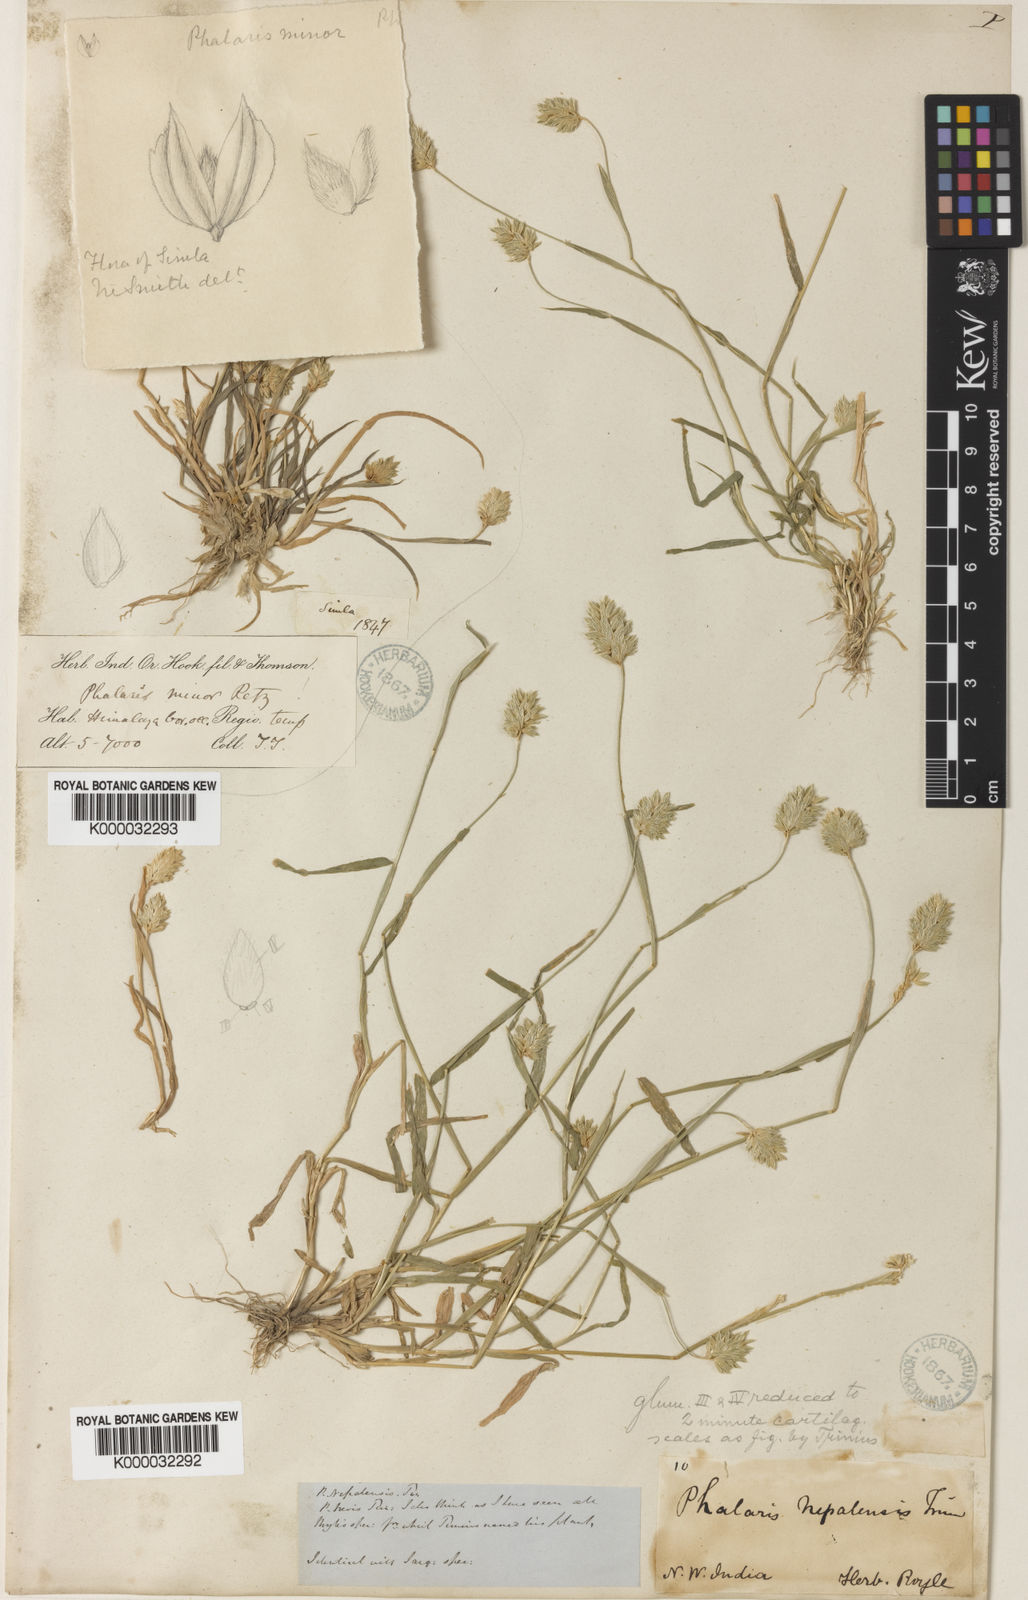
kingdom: Plantae
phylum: Tracheophyta
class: Liliopsida
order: Poales
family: Poaceae
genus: Phalaris
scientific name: Phalaris minor
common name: Littleseed canarygrass
